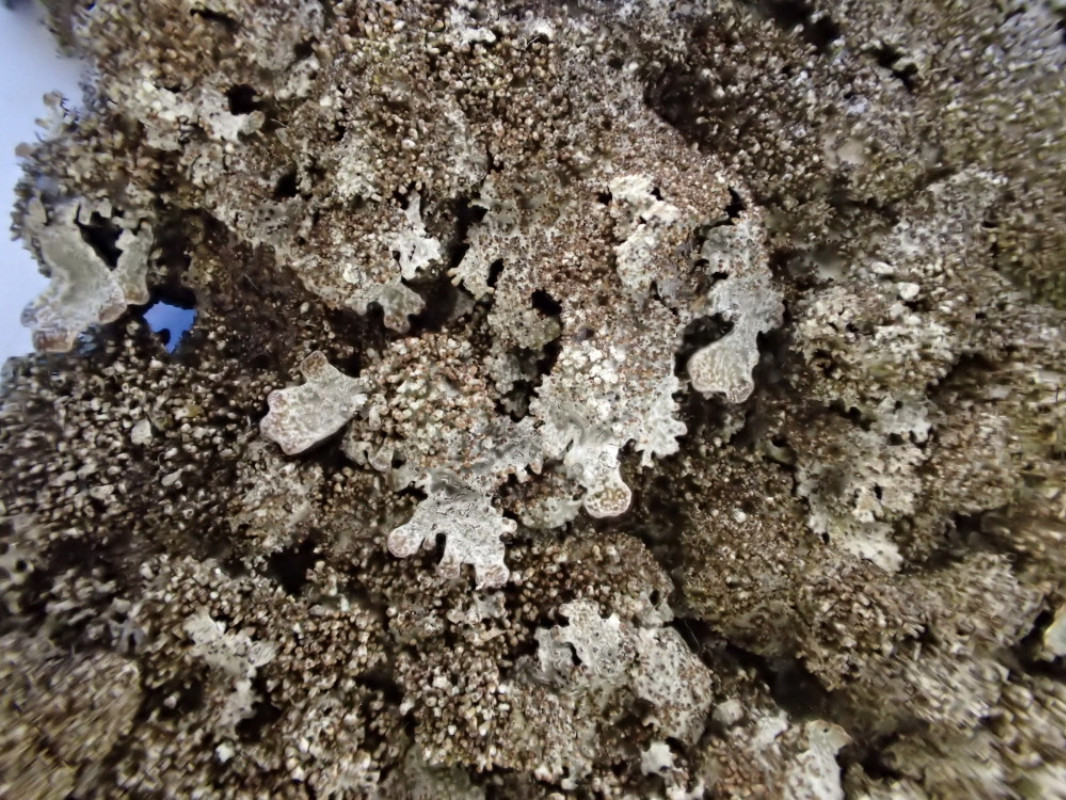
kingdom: Fungi
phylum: Ascomycota
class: Lecanoromycetes
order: Lecanorales
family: Parmeliaceae
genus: Parmelia
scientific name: Parmelia saxatilis
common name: farve-skållav
